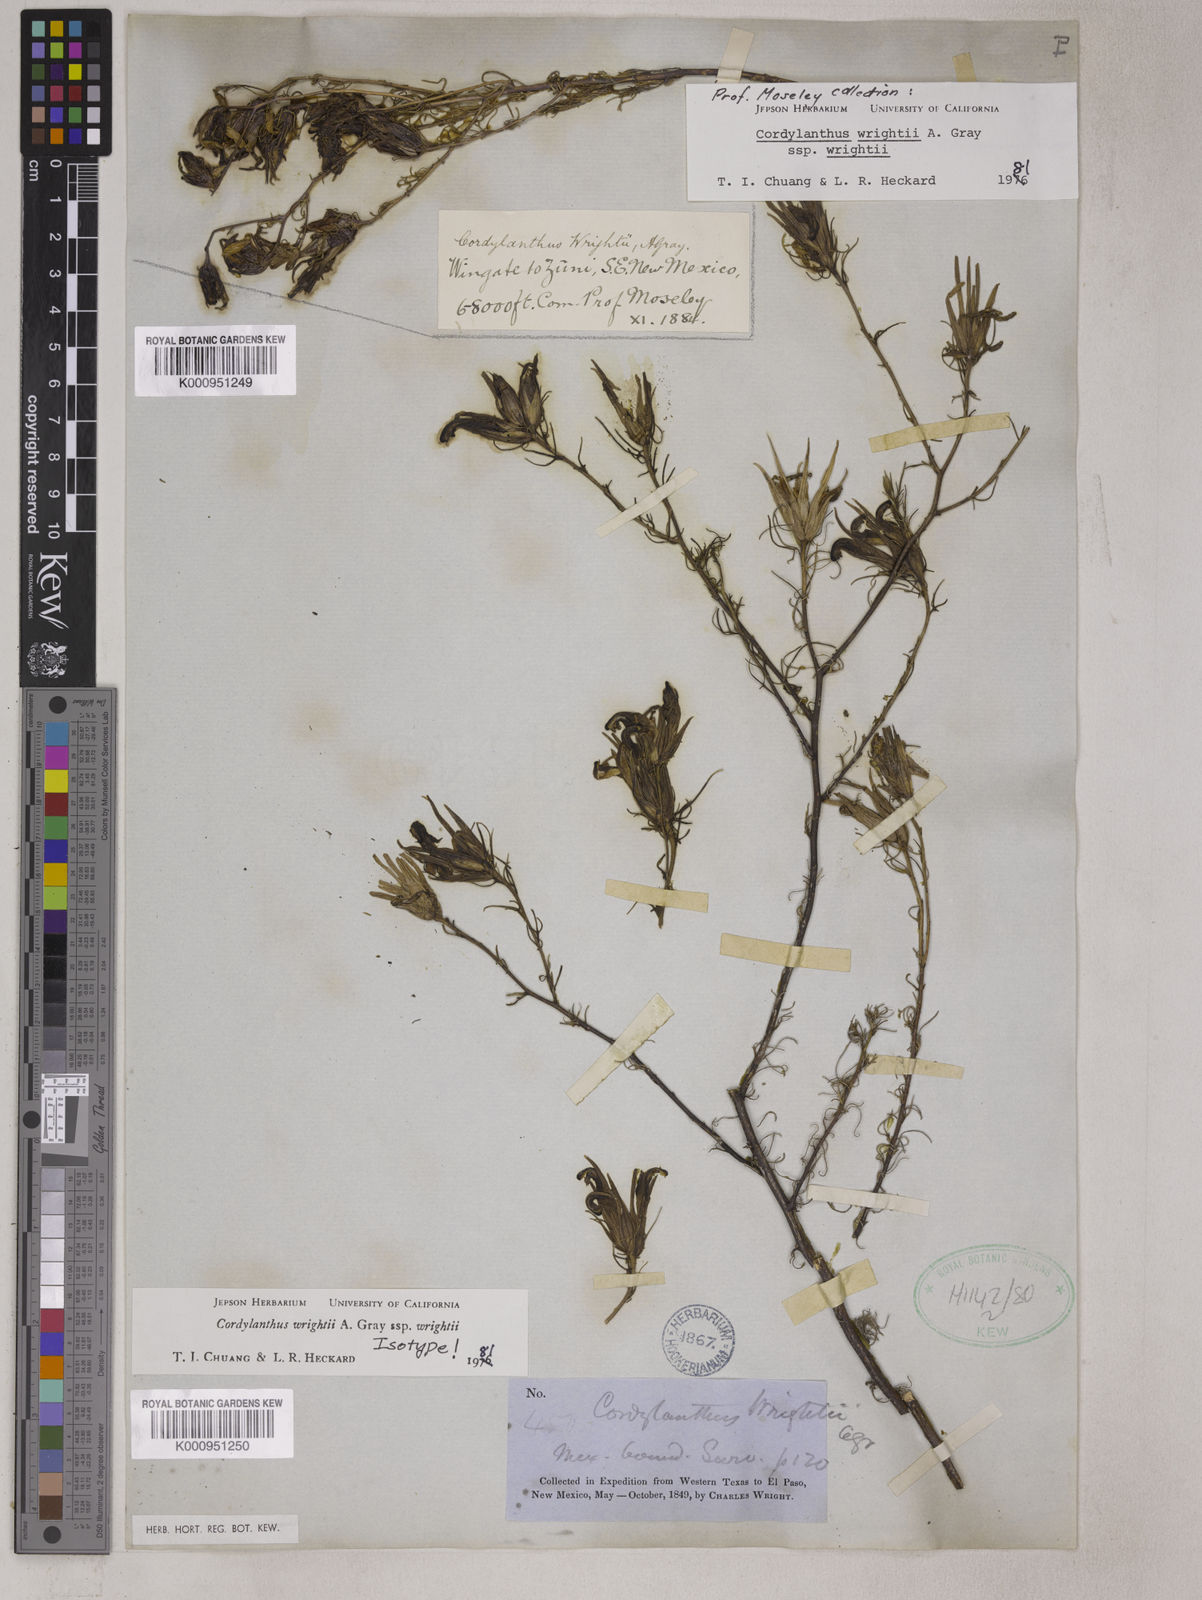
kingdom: Plantae
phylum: Tracheophyta
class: Magnoliopsida
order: Lamiales
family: Orobanchaceae
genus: Cordylanthus
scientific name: Cordylanthus wrightii
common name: Wright's birdsbeak
